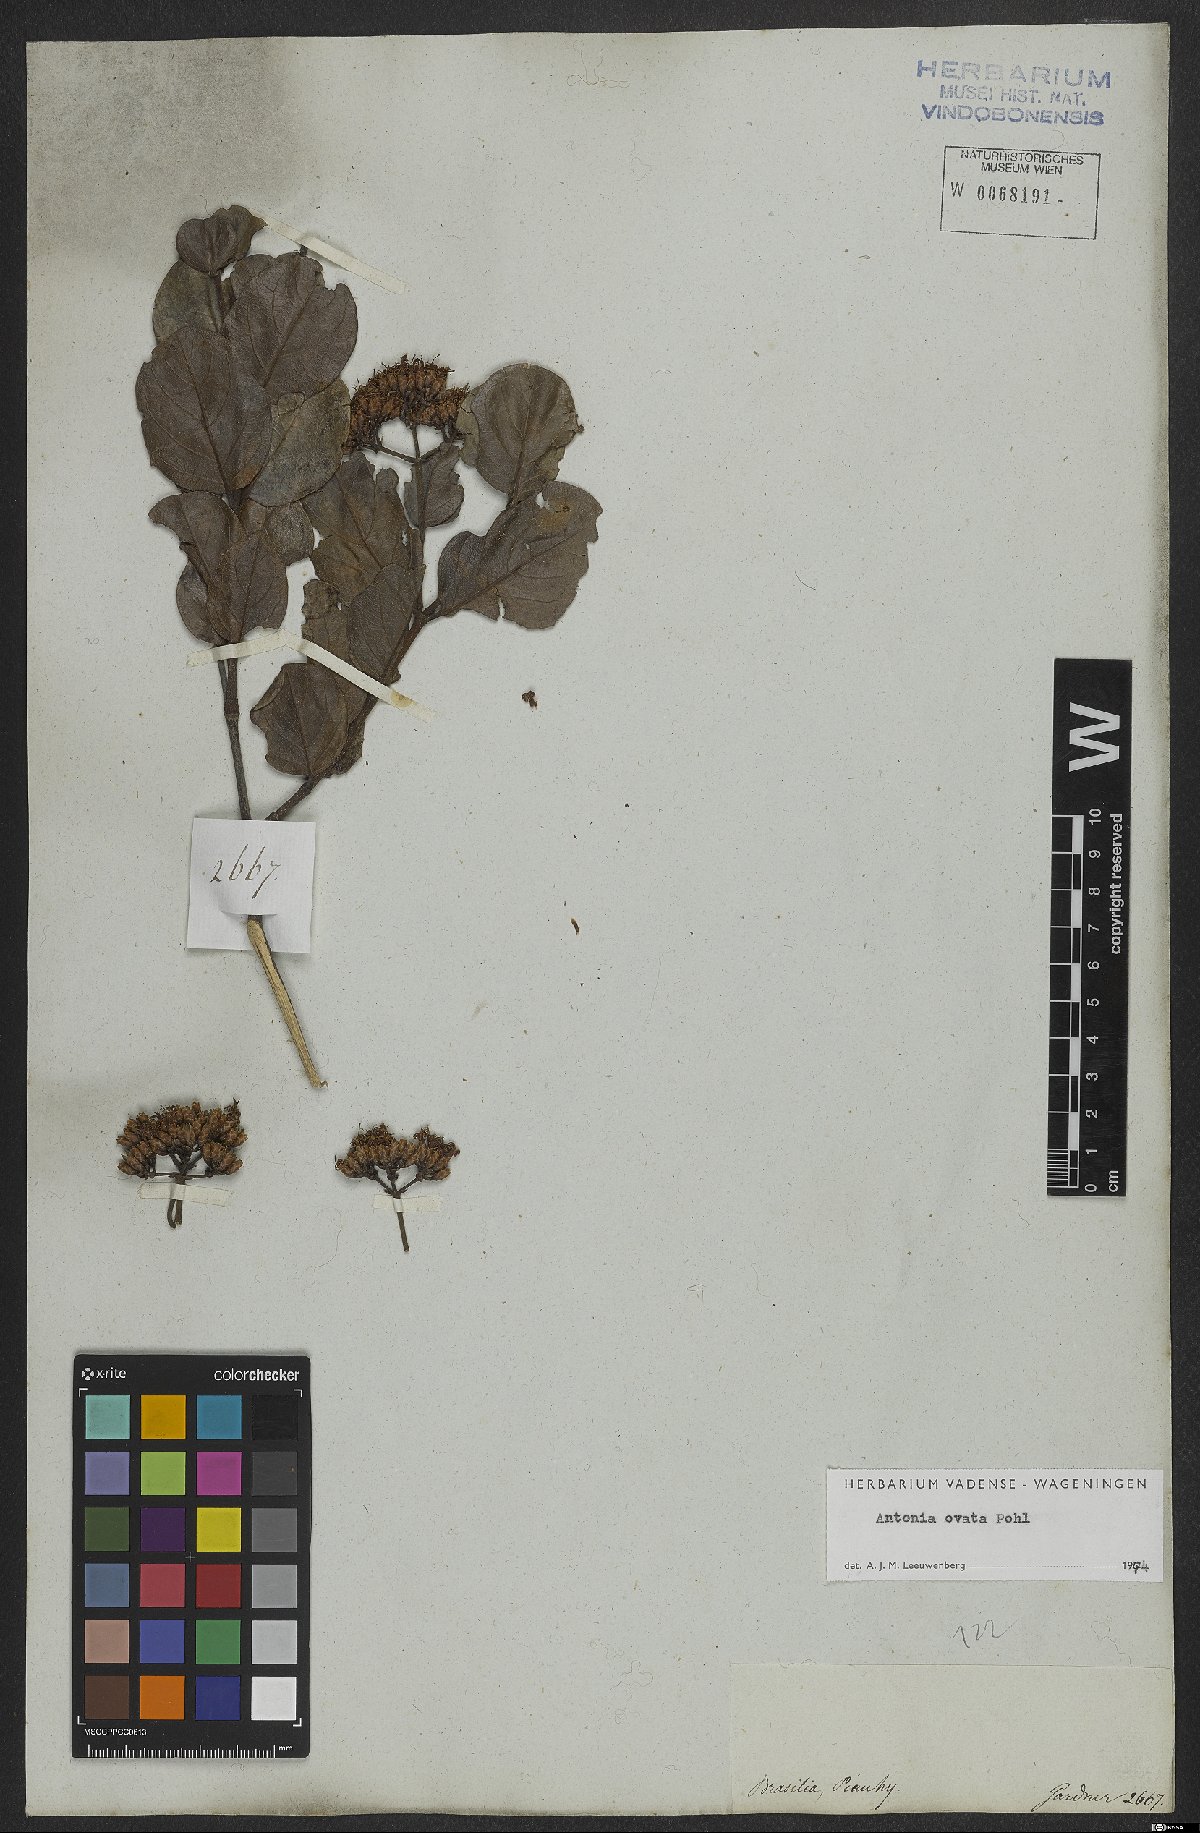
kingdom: Plantae
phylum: Tracheophyta
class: Magnoliopsida
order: Gentianales
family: Loganiaceae
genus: Antonia
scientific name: Antonia ovata
